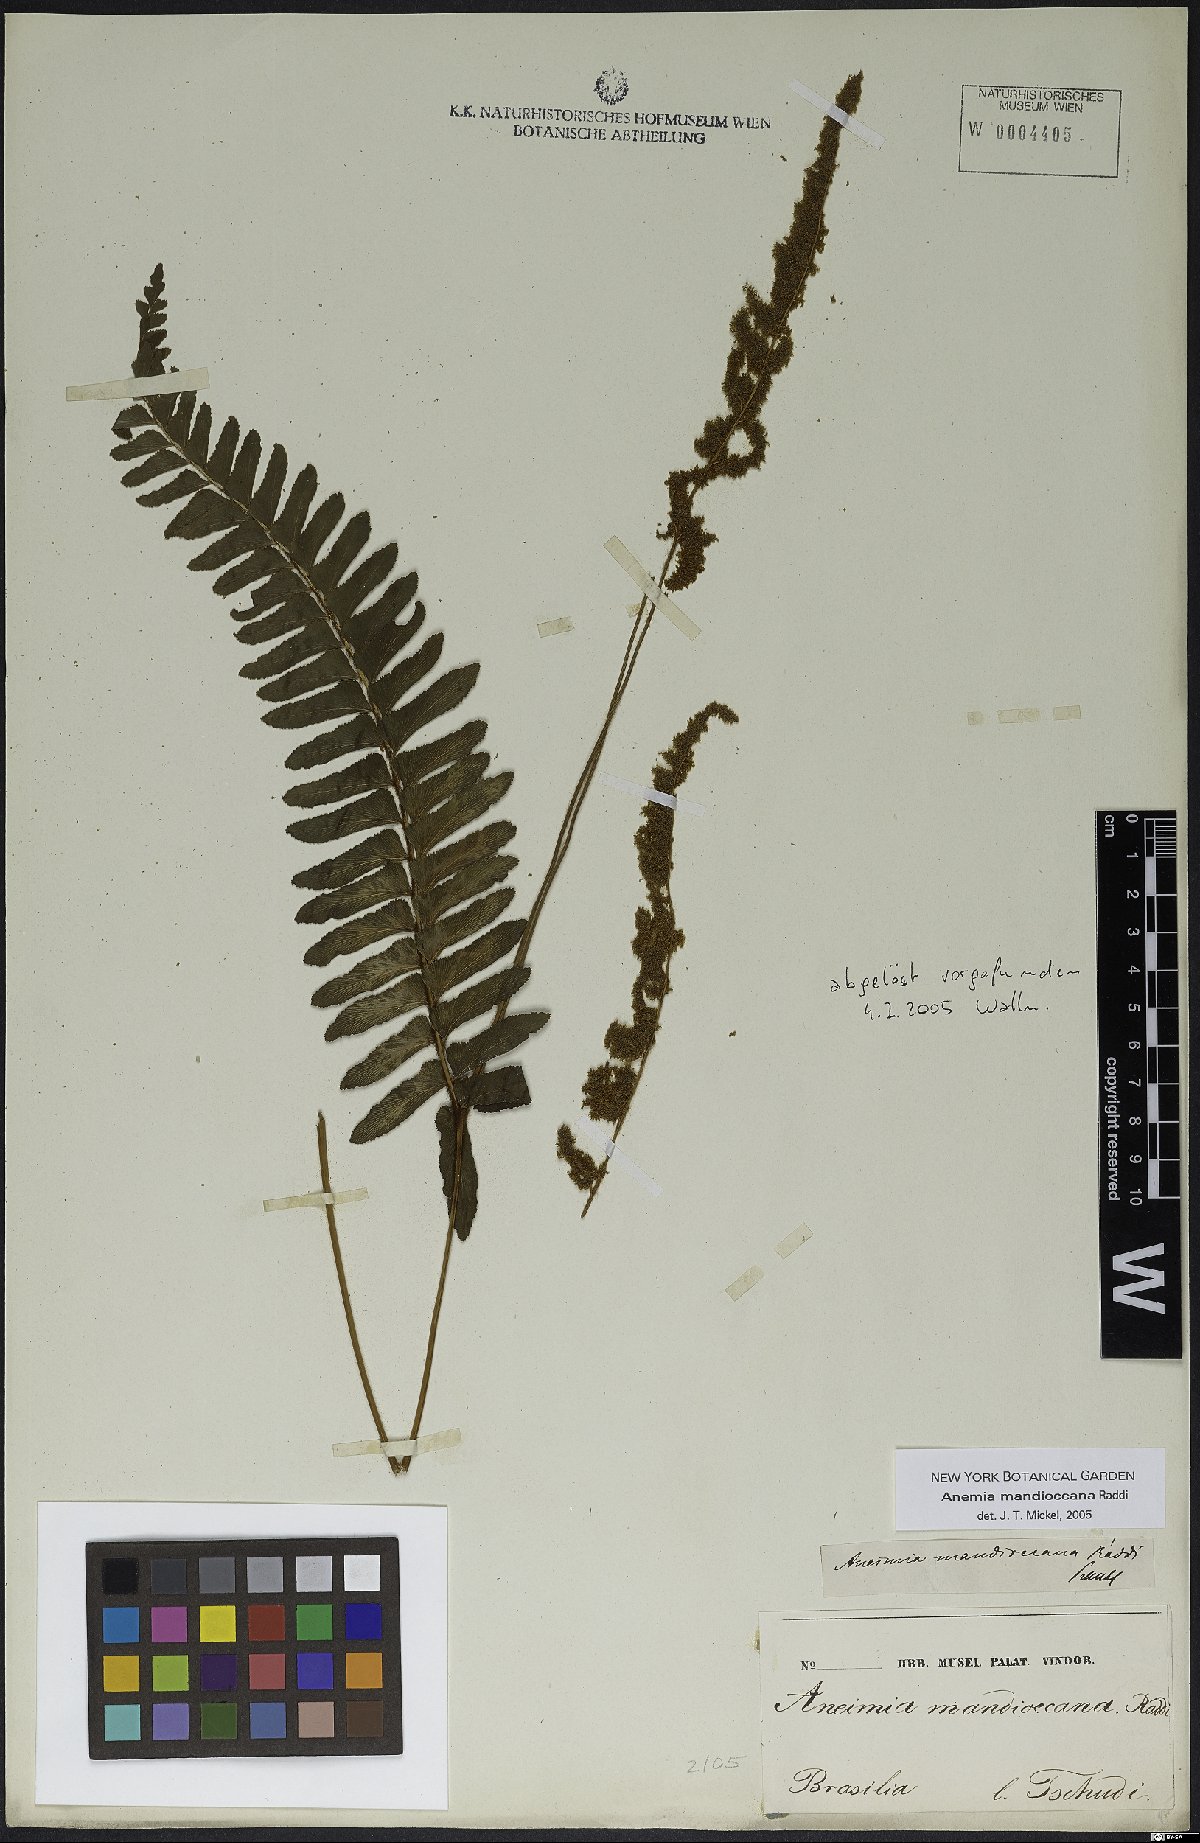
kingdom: Plantae
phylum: Tracheophyta
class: Polypodiopsida
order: Schizaeales
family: Anemiaceae
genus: Anemia
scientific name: Anemia mandiocana
